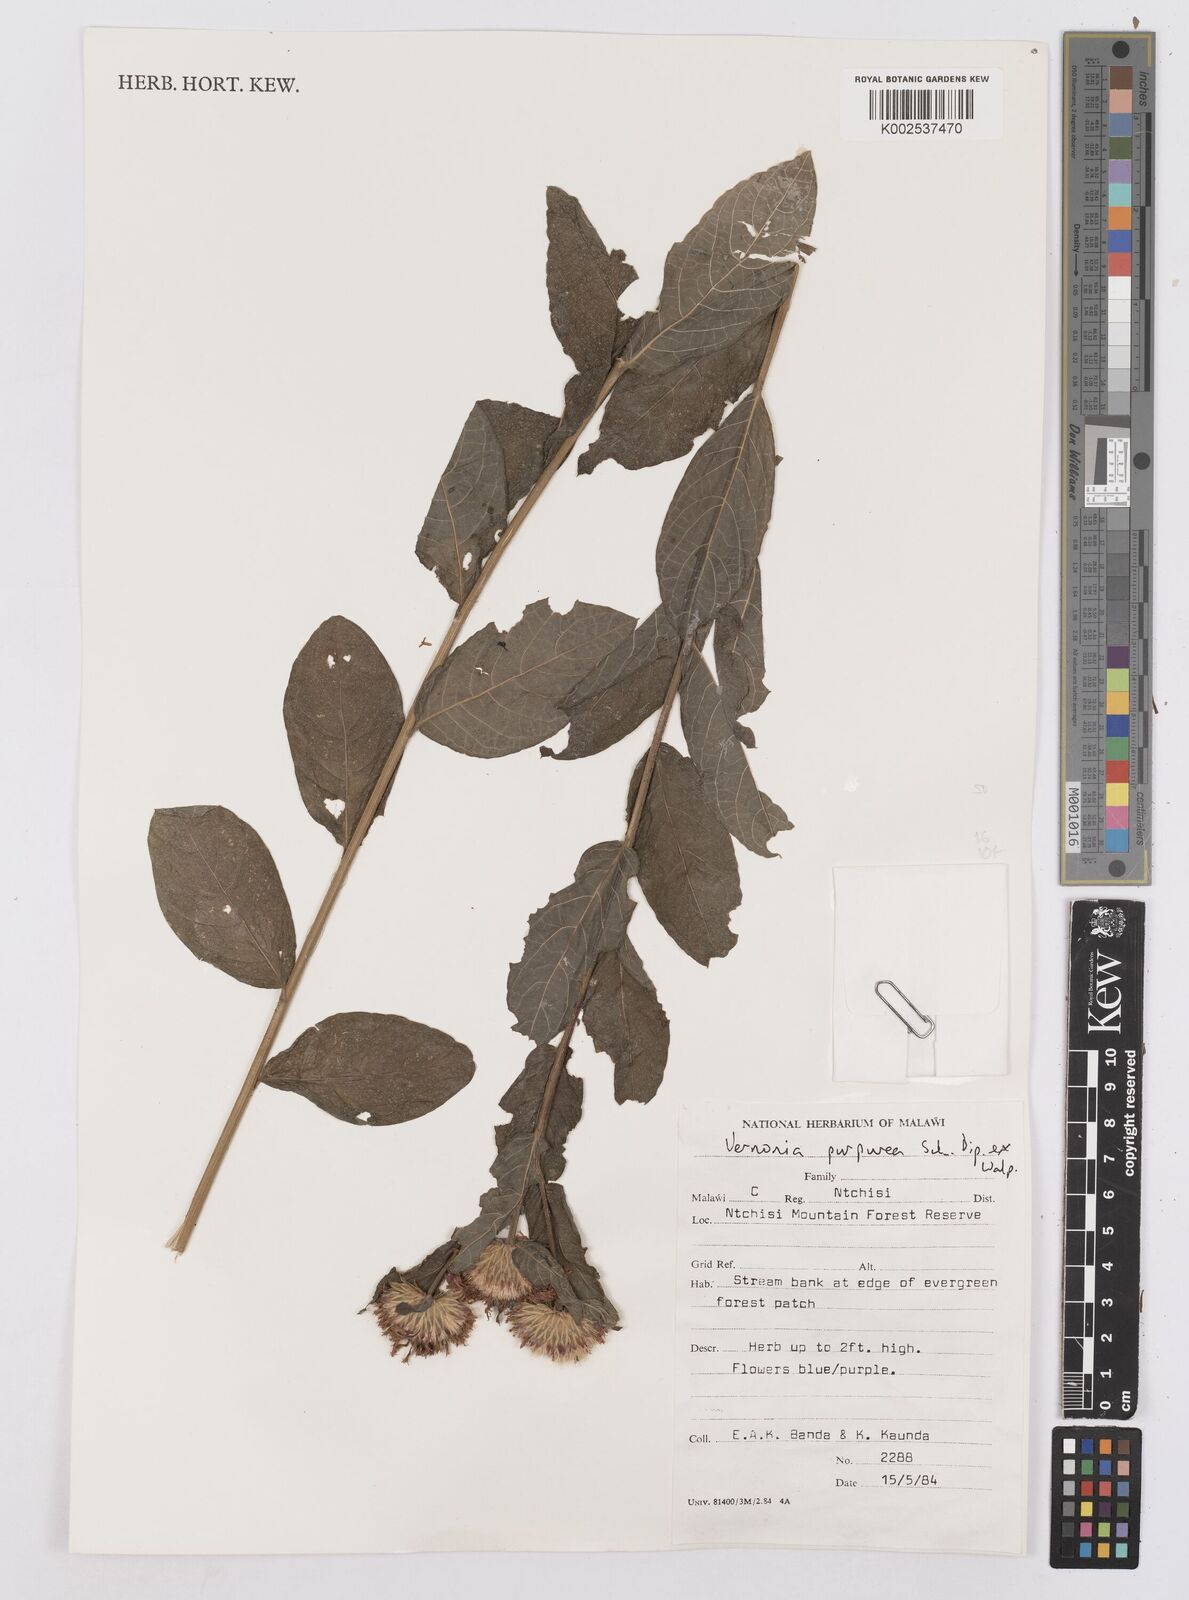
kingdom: Plantae
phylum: Tracheophyta
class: Magnoliopsida
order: Asterales
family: Asteraceae
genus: Nothovernonia
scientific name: Nothovernonia purpurea
